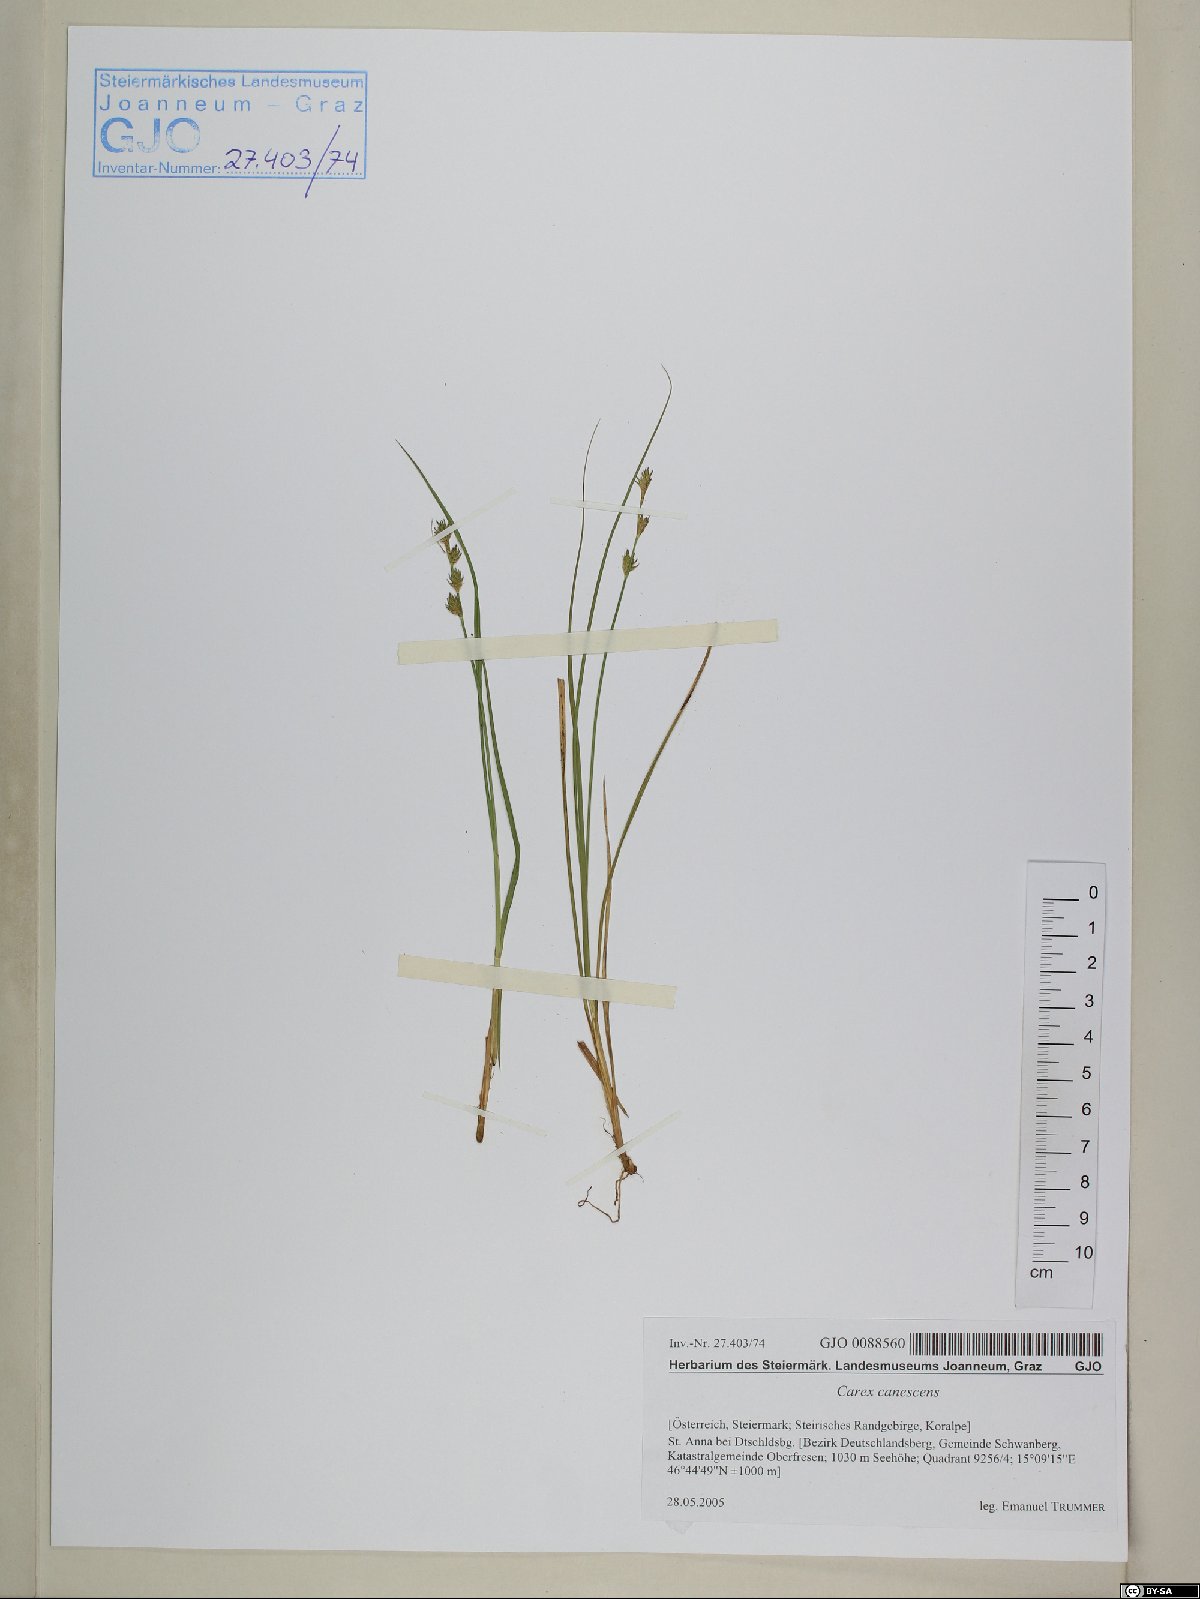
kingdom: Plantae
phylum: Tracheophyta
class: Liliopsida
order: Poales
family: Cyperaceae
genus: Carex
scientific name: Carex canescens
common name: White sedge
